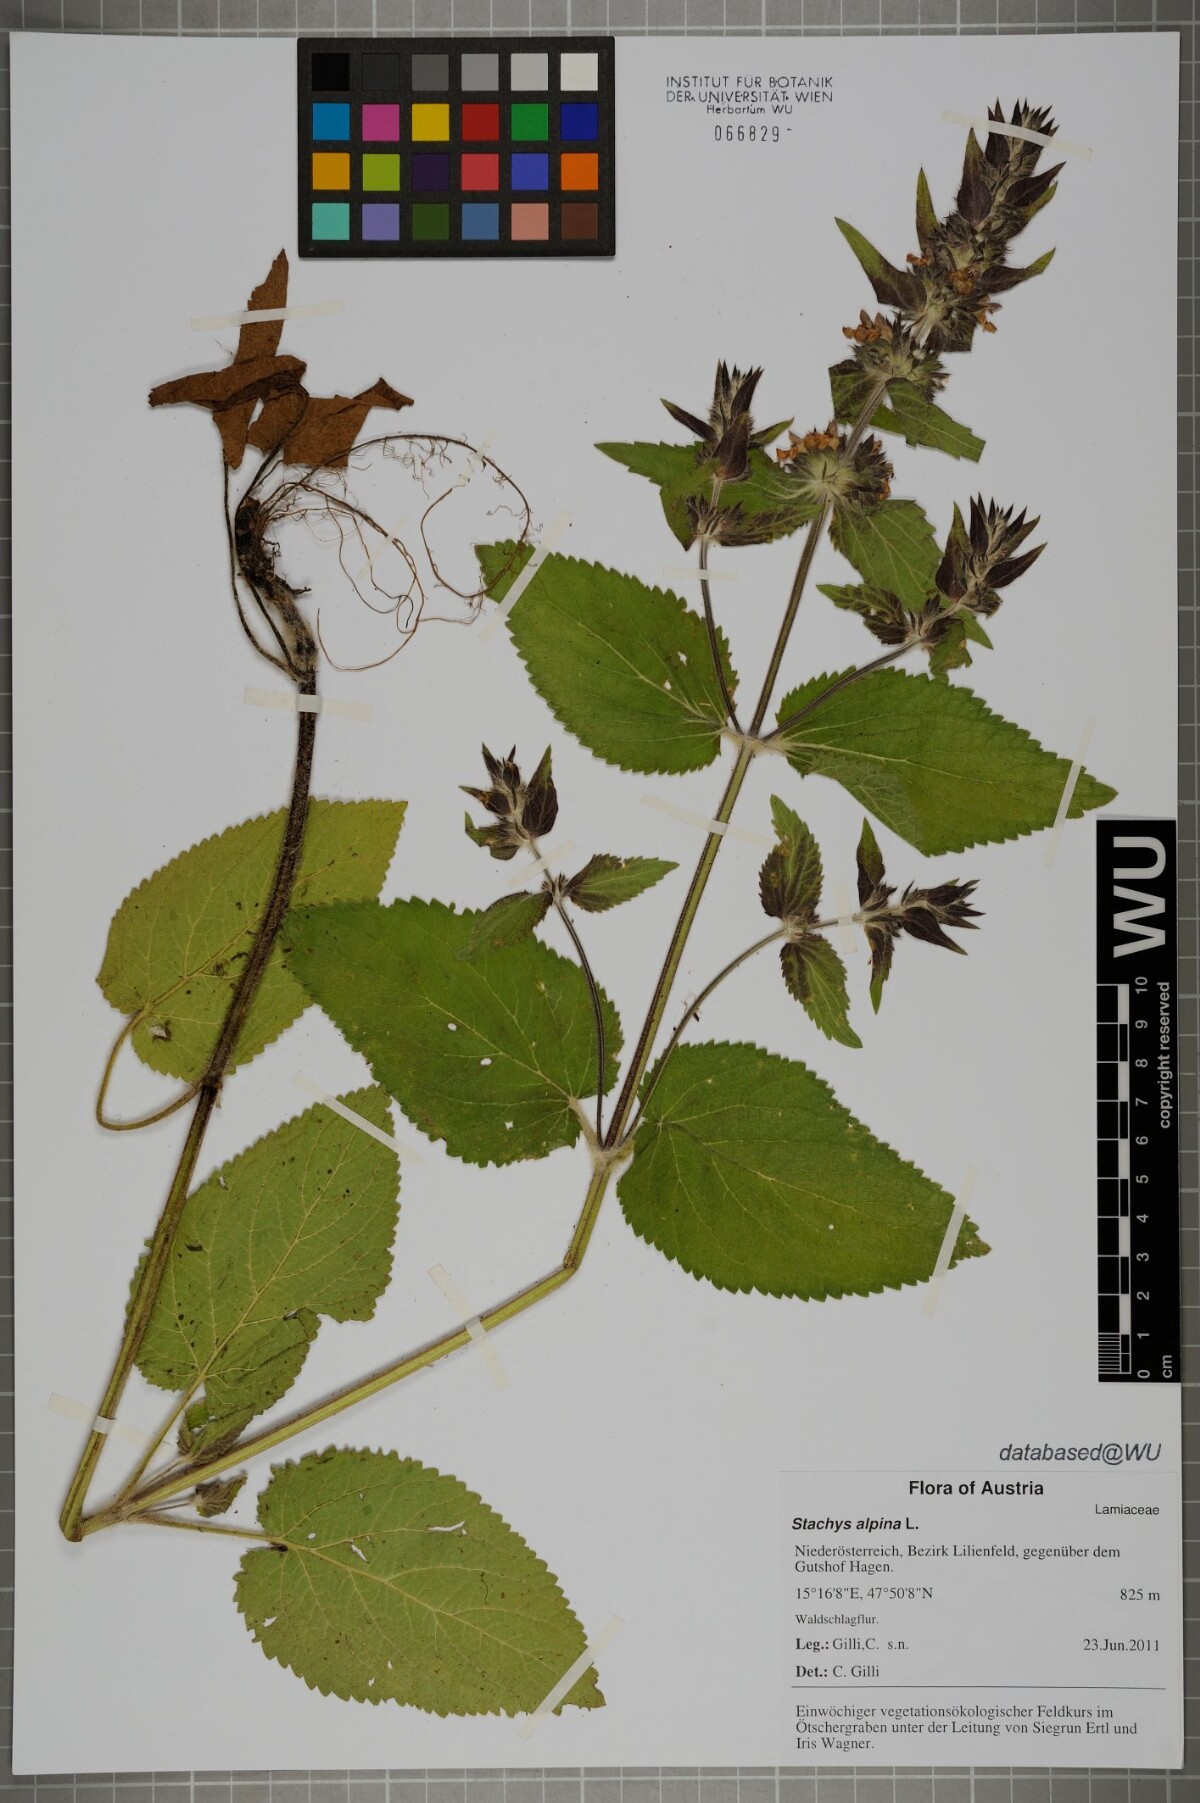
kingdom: Plantae
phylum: Tracheophyta
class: Magnoliopsida
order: Lamiales
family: Lamiaceae
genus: Stachys
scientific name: Stachys alpina
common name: Limestone woundwort
